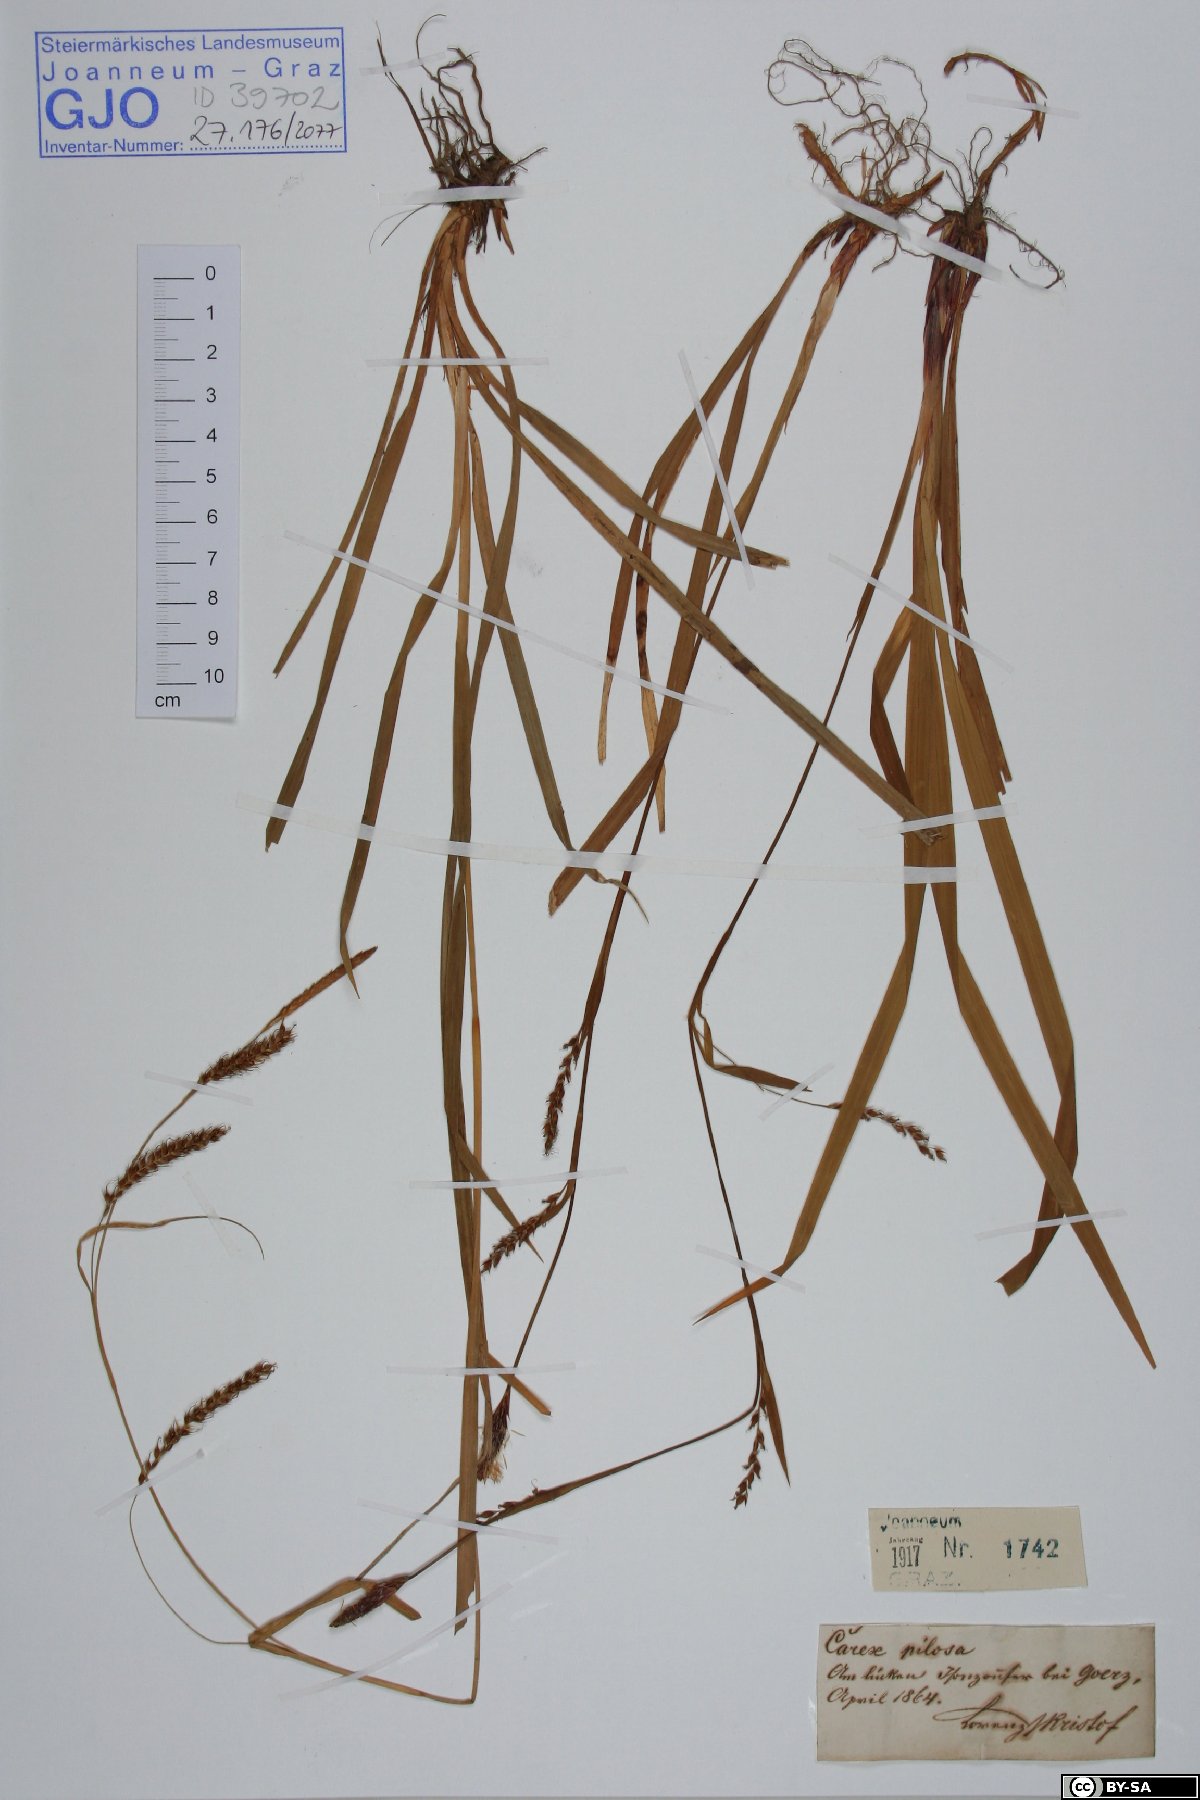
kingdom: Plantae
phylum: Tracheophyta
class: Liliopsida
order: Poales
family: Cyperaceae
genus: Carex
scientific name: Carex pilosa
